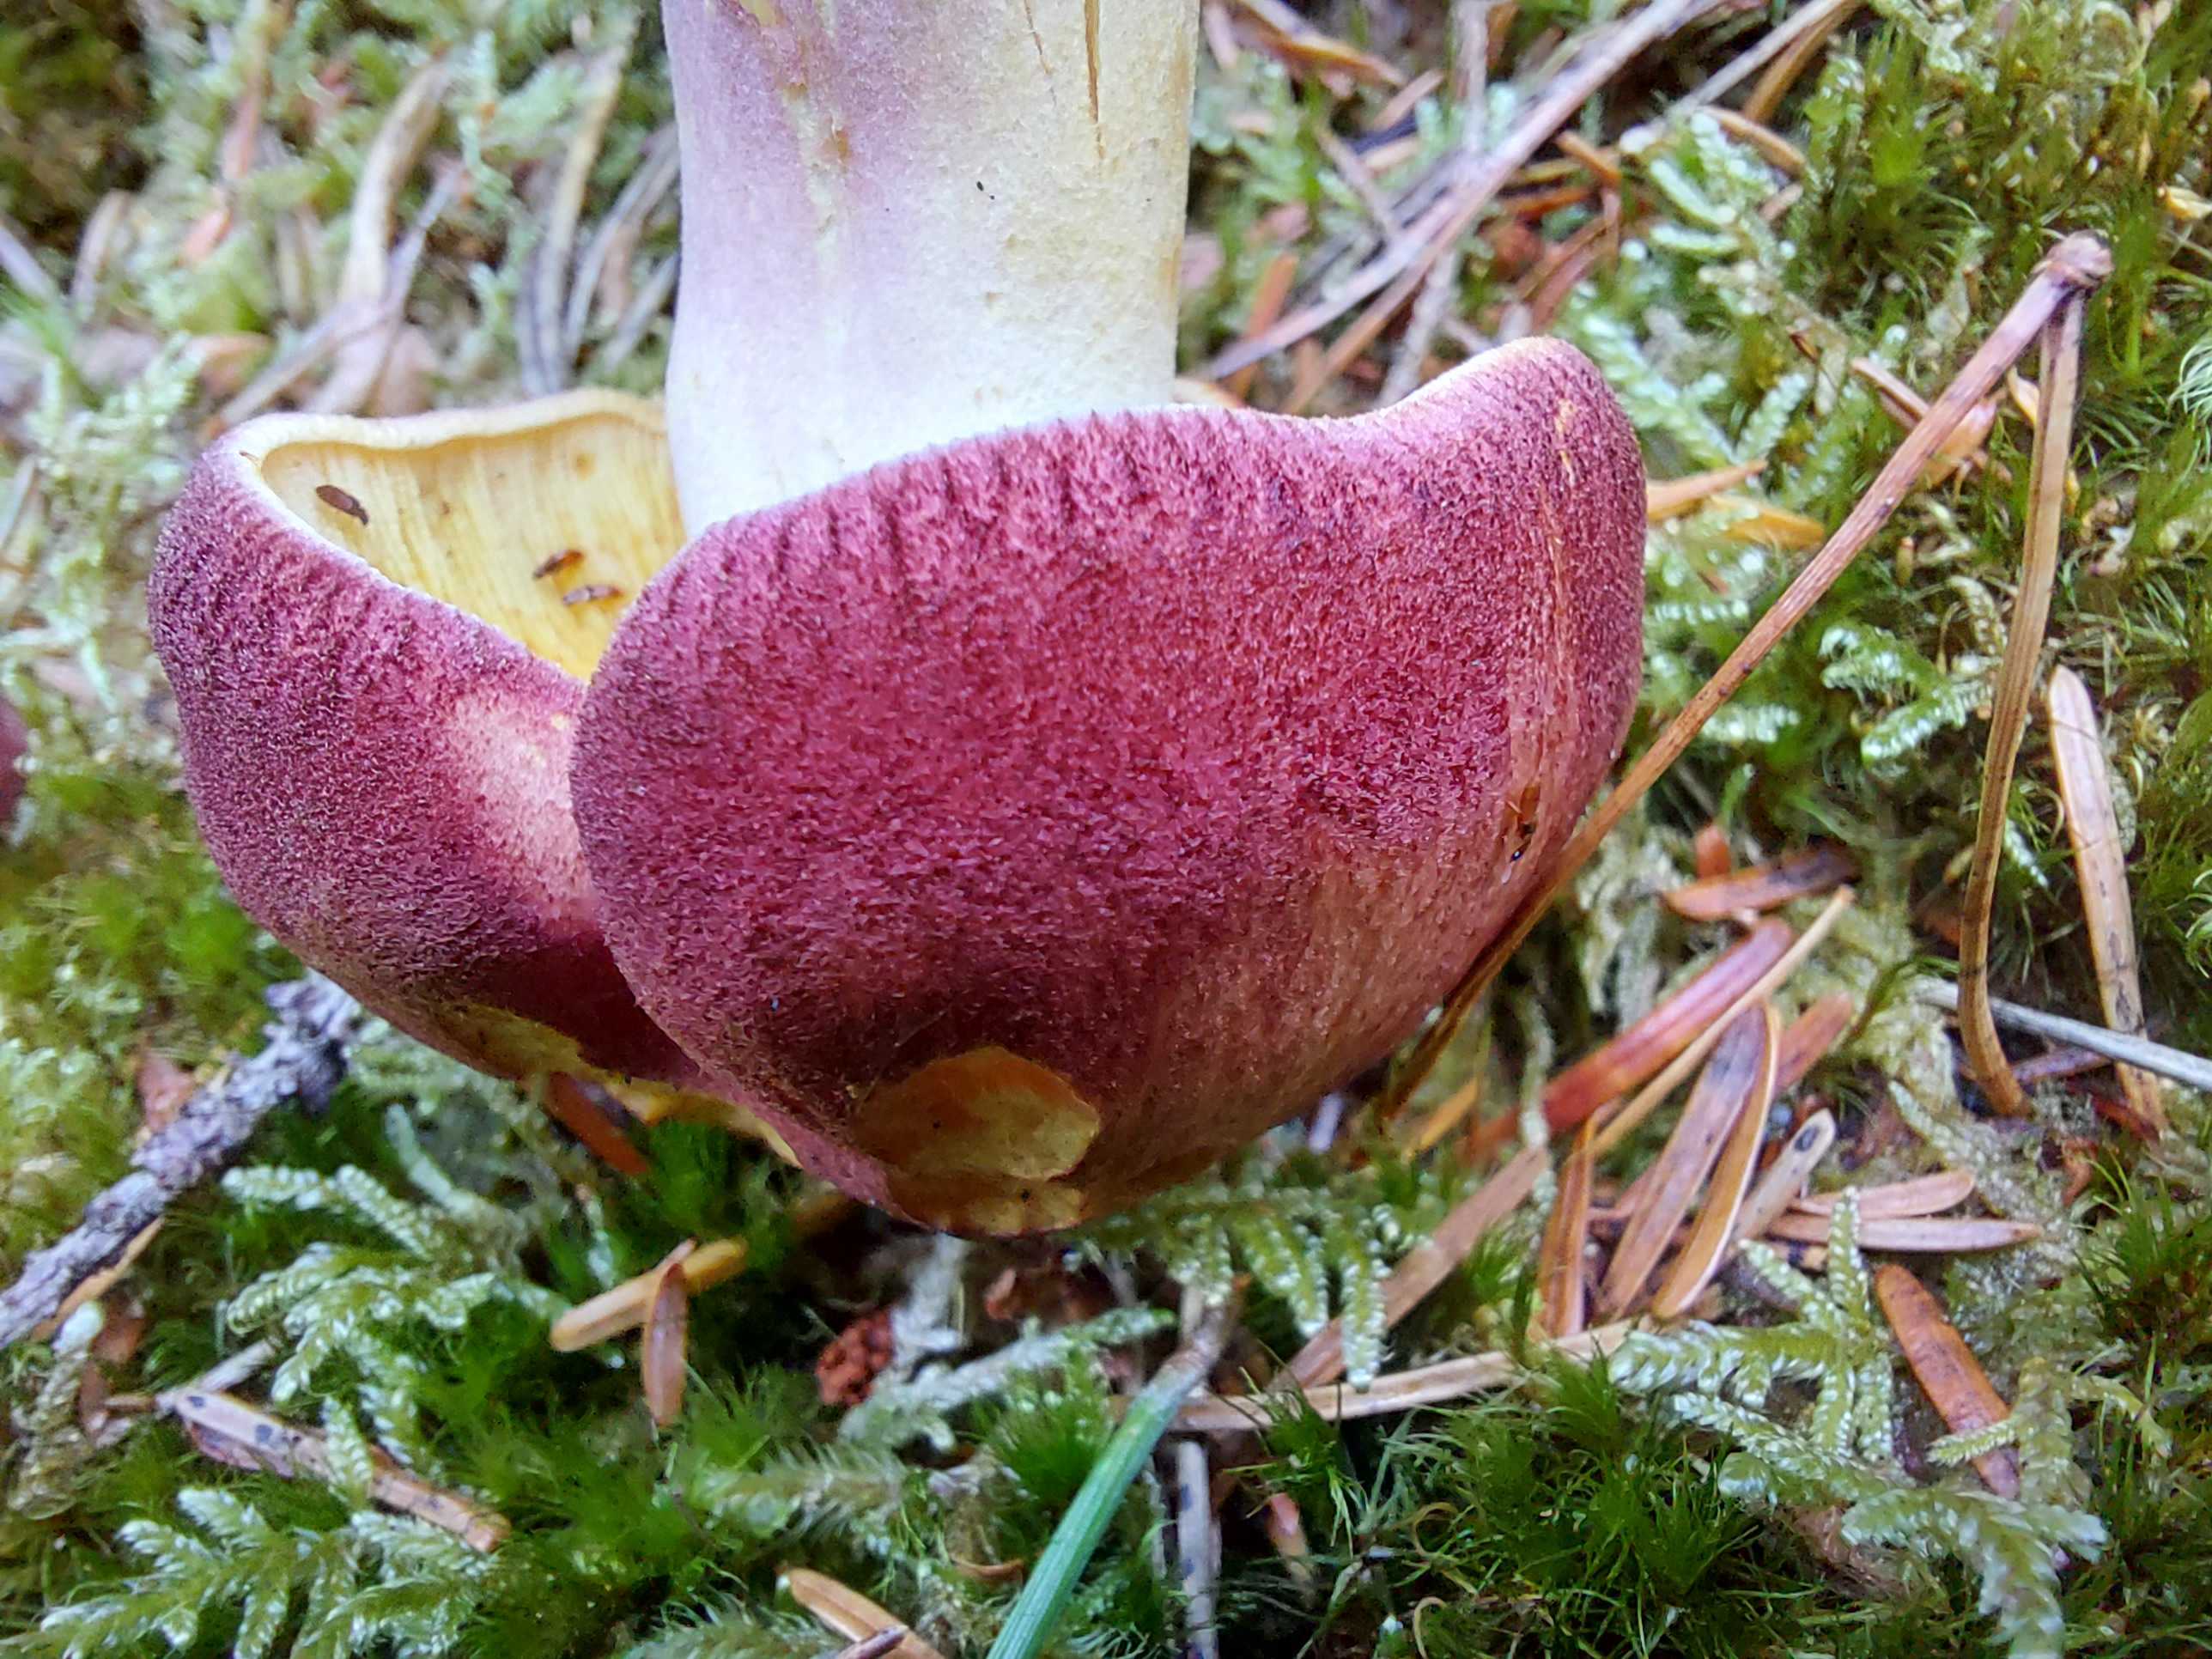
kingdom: Fungi
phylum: Basidiomycota
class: Agaricomycetes
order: Agaricales
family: Tricholomataceae
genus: Tricholomopsis
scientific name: Tricholomopsis rutilans
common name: purpur-væbnerhat
